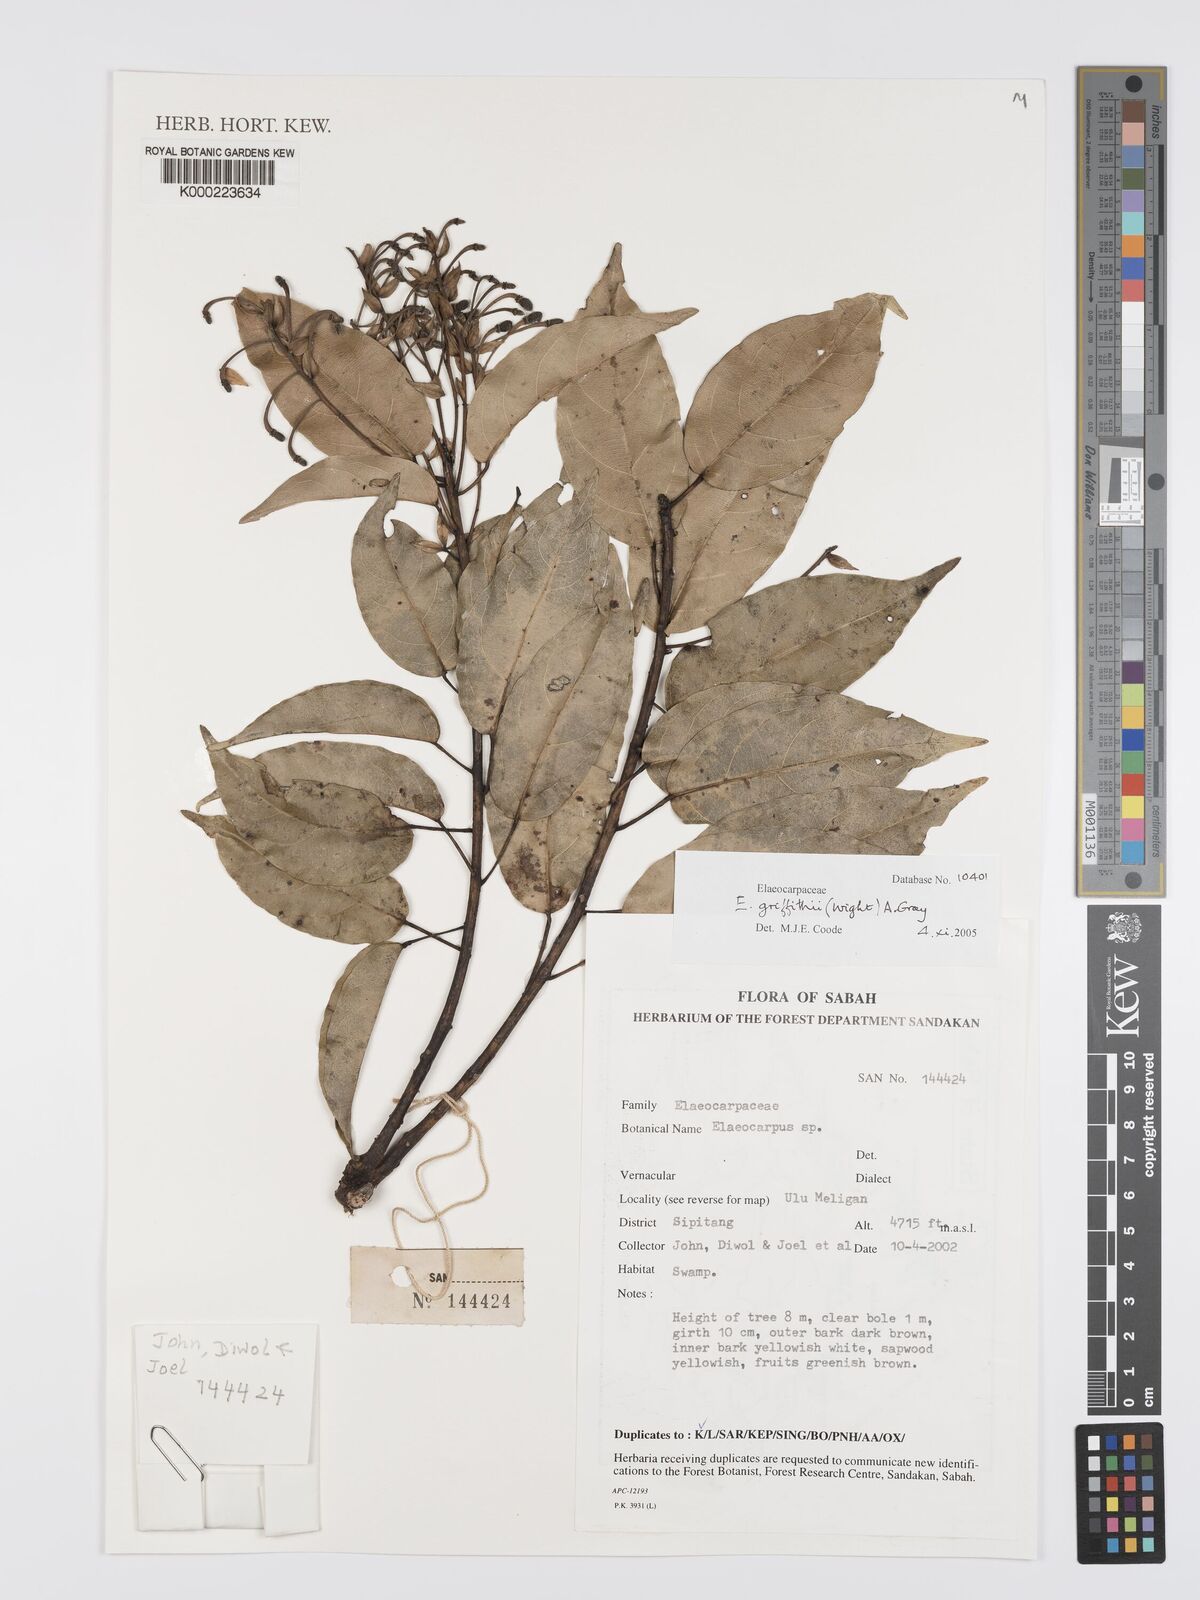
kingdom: Plantae
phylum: Tracheophyta
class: Magnoliopsida
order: Oxalidales
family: Elaeocarpaceae
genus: Elaeocarpus
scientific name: Elaeocarpus griffithii
